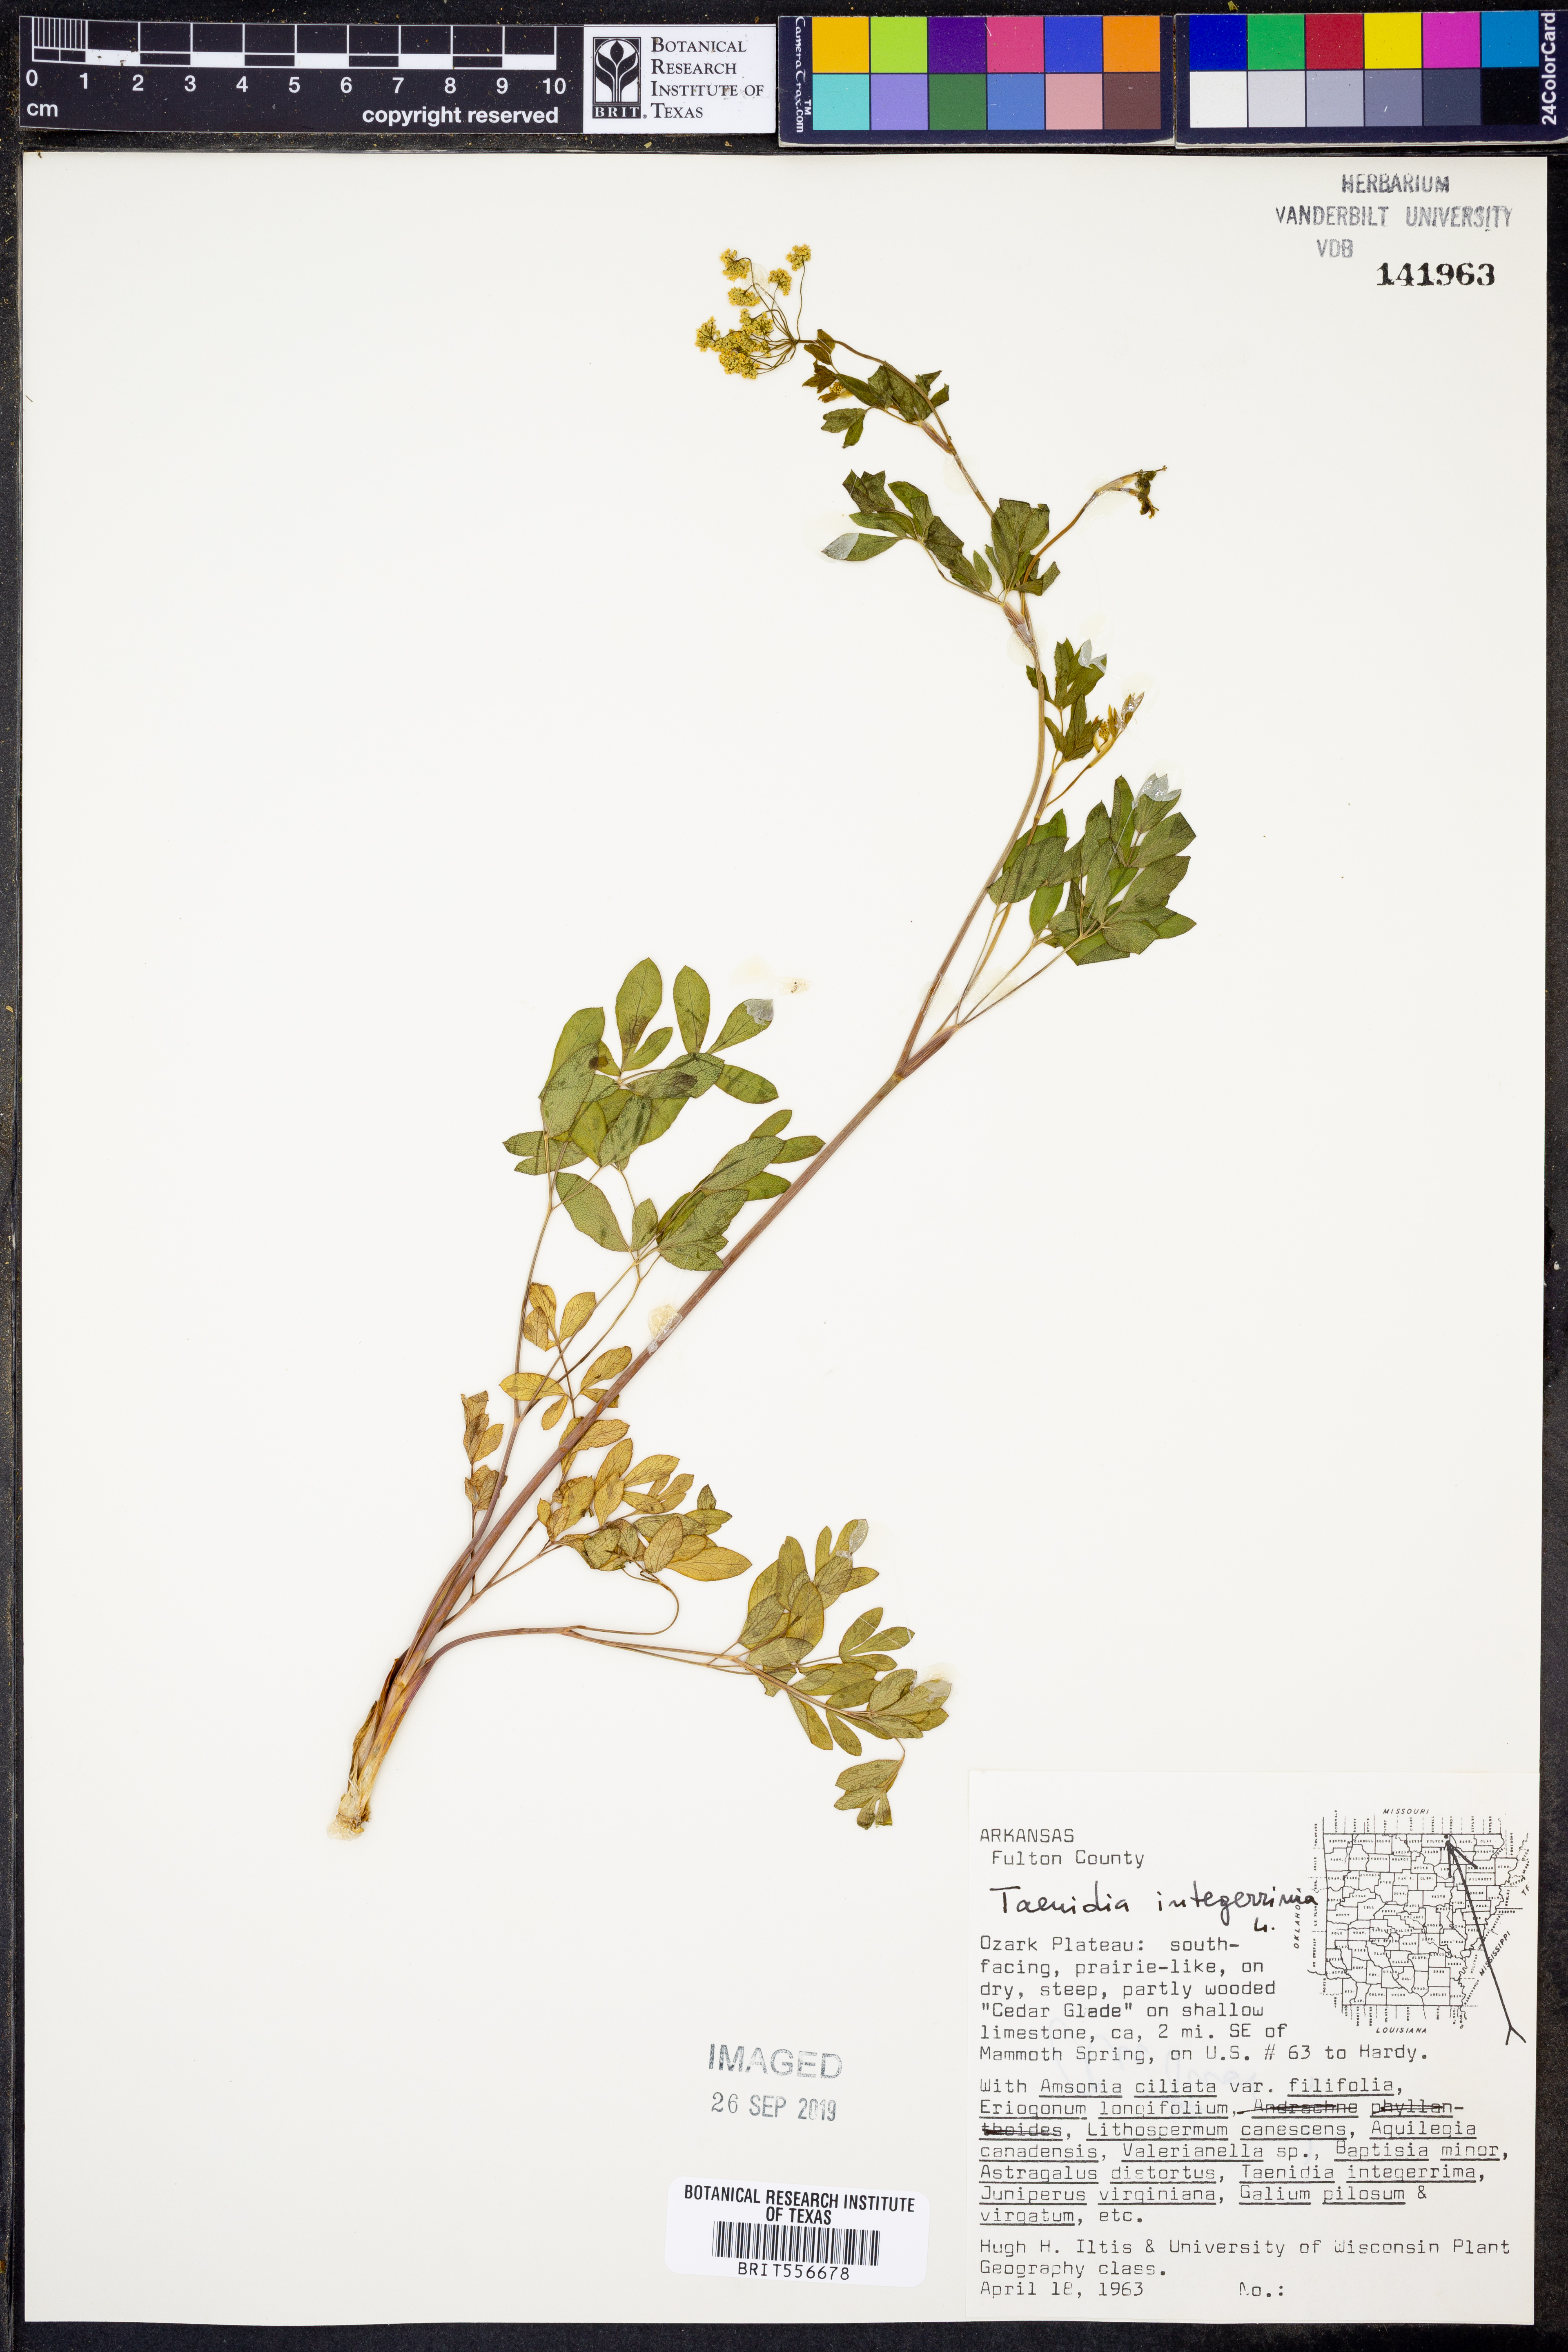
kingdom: Plantae
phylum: Tracheophyta
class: Magnoliopsida
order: Apiales
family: Apiaceae
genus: Taenidia
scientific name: Taenidia integerrima
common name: Golden alexander
